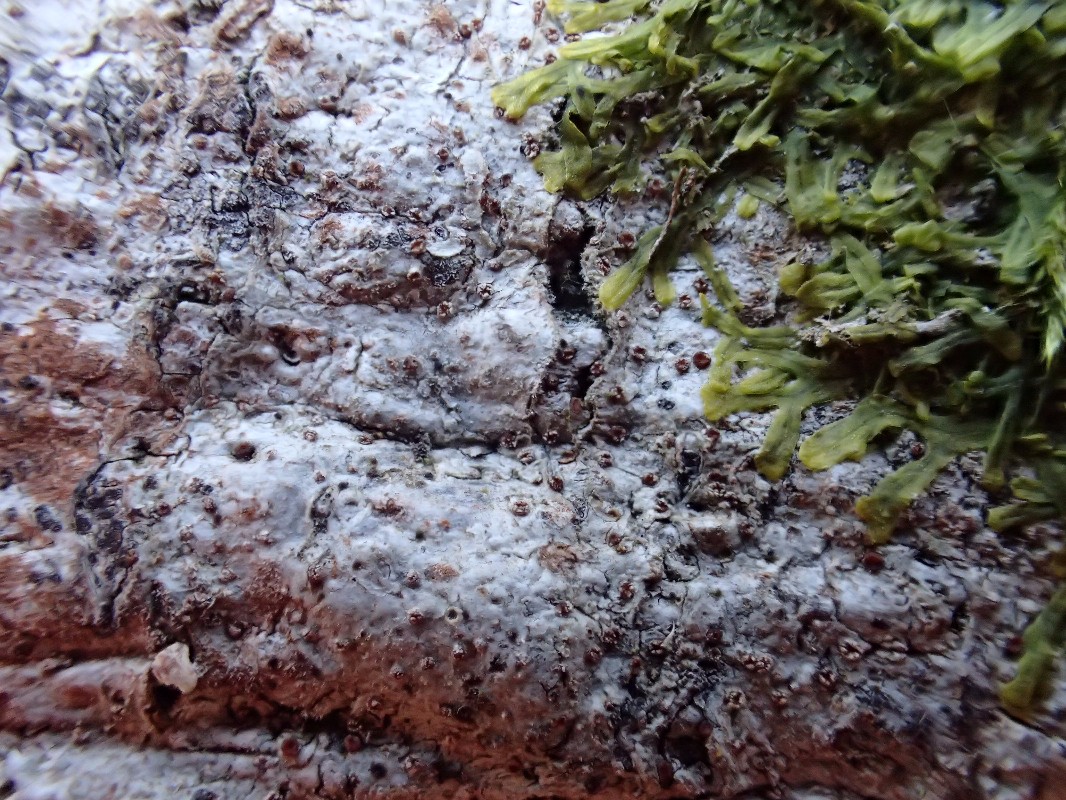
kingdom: Fungi
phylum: Ascomycota
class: Lecanoromycetes
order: Gyalectales
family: Gyalectaceae
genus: Pachyphiale
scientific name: Pachyphiale carneola
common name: rødbrun gammelskovslav
